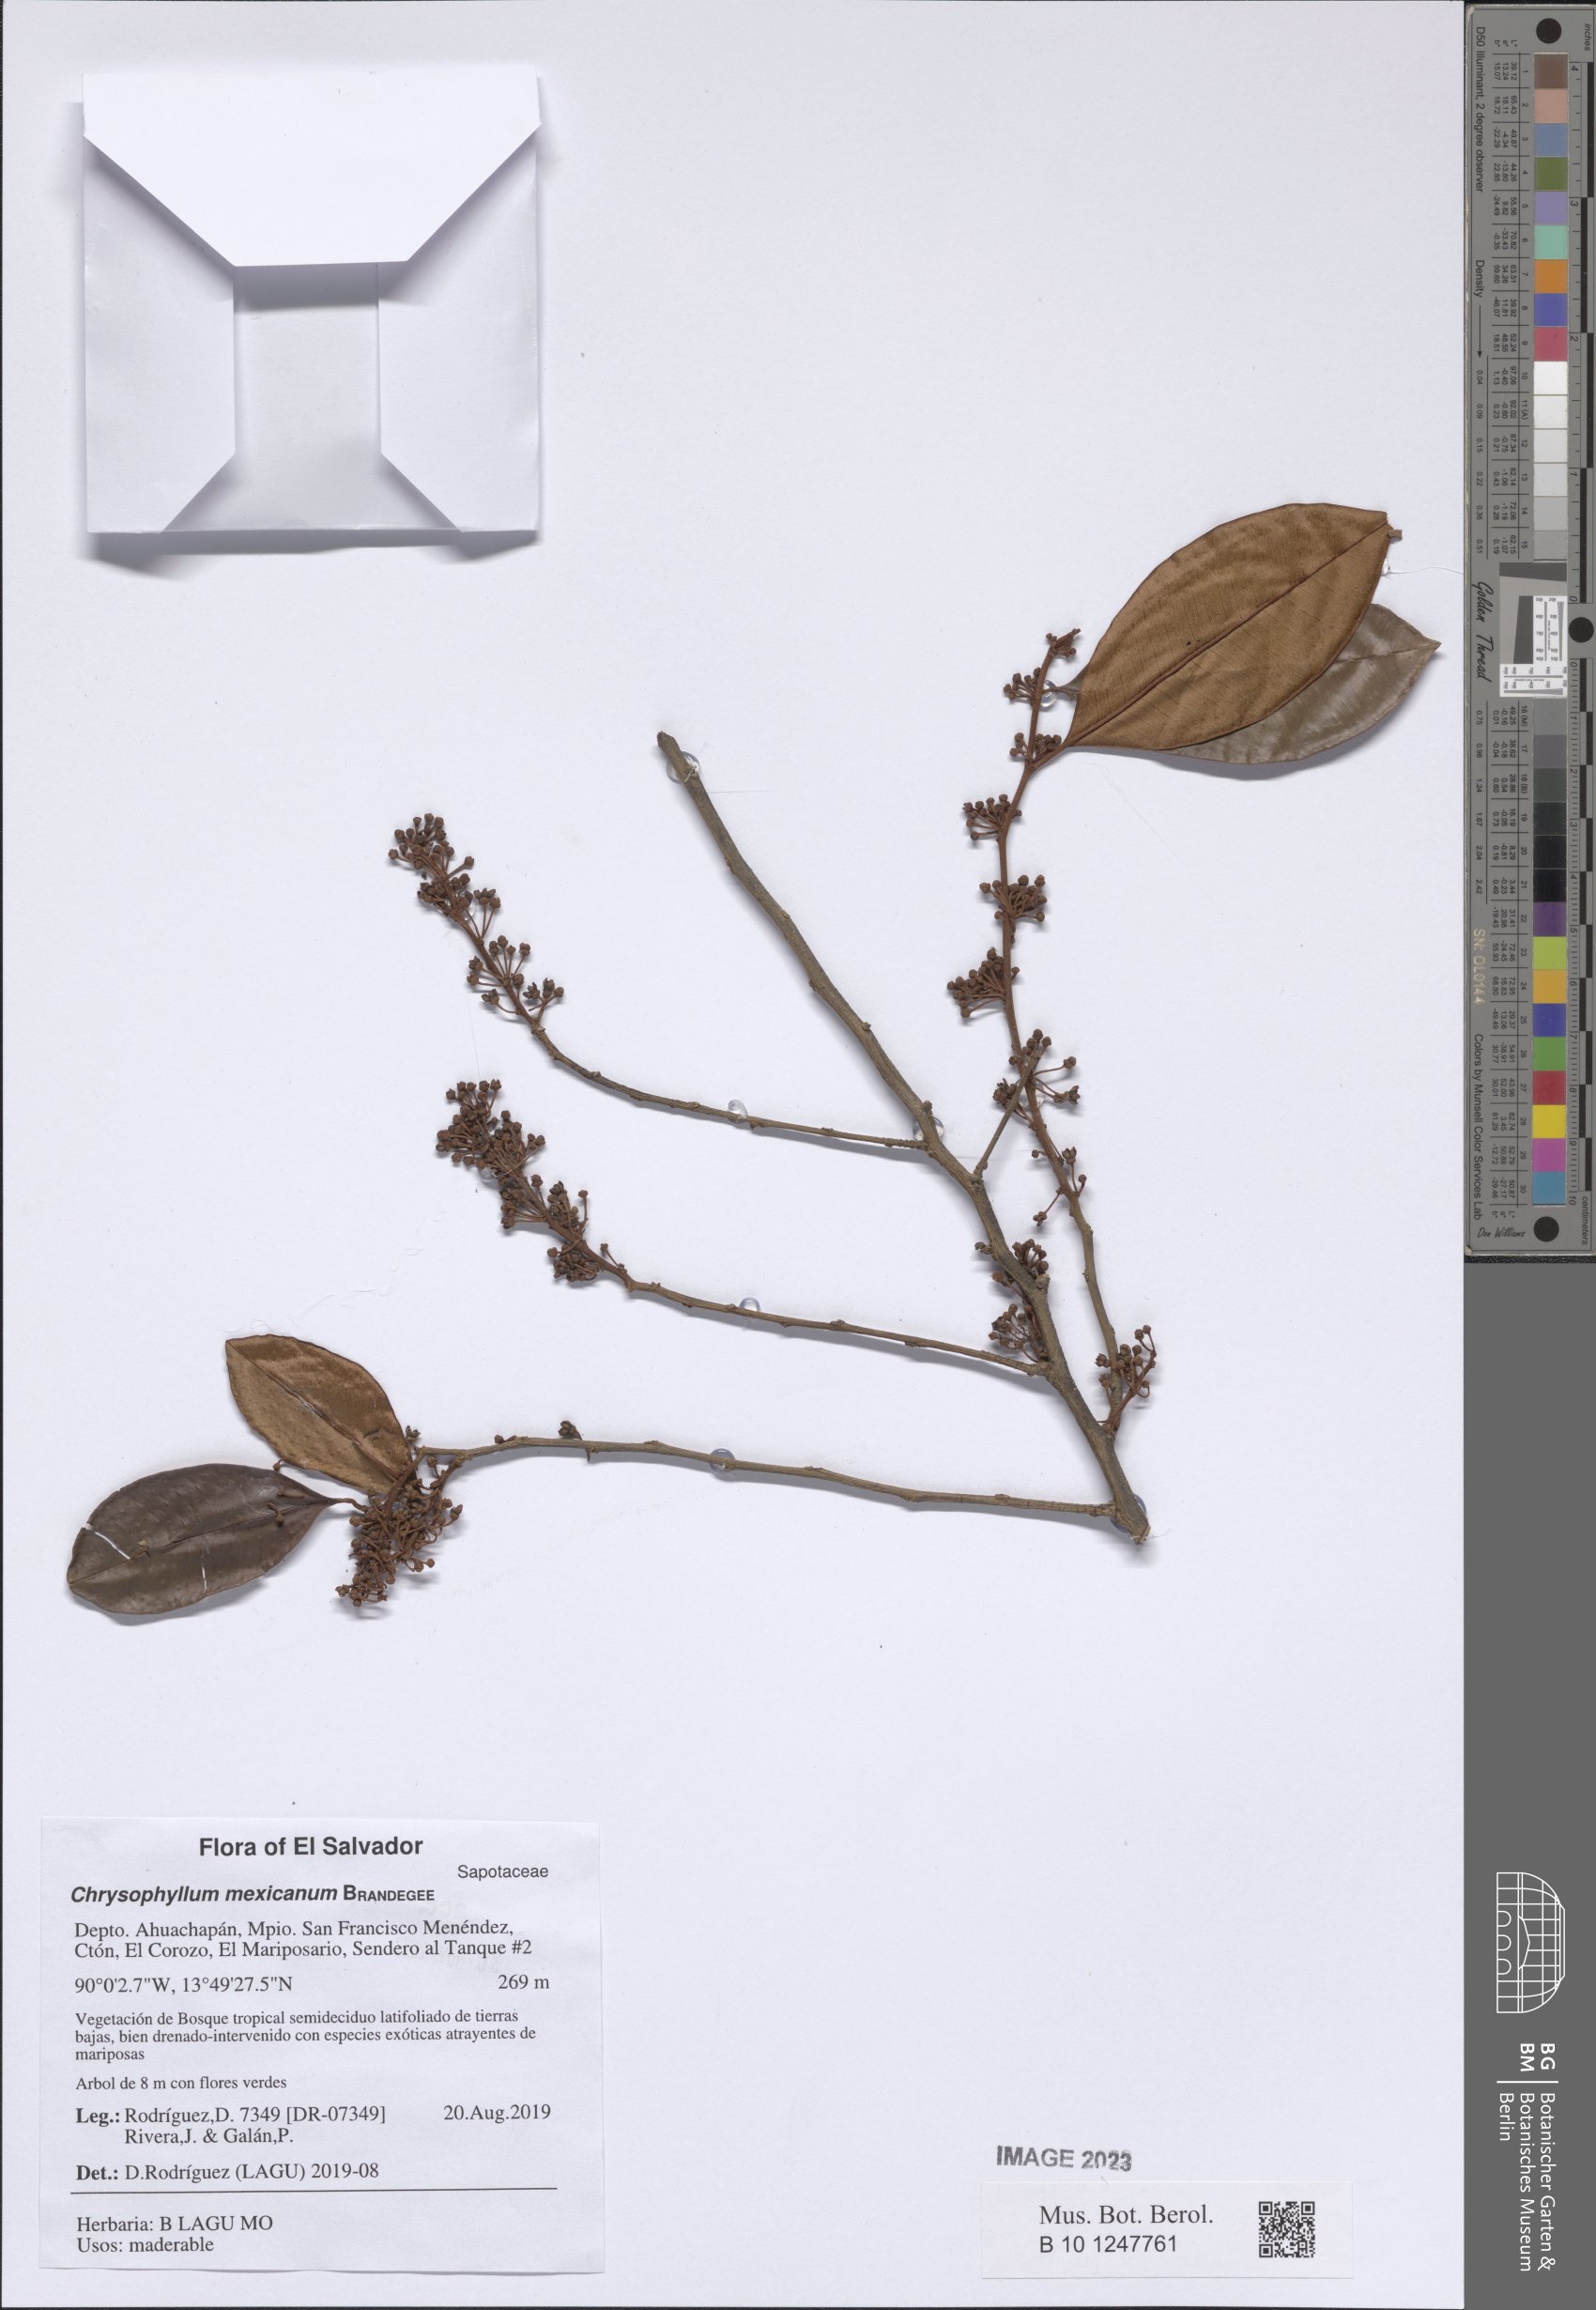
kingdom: Plantae
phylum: Tracheophyta
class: Magnoliopsida
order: Ericales
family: Sapotaceae
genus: Chrysophyllum
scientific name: Chrysophyllum mexicanum
